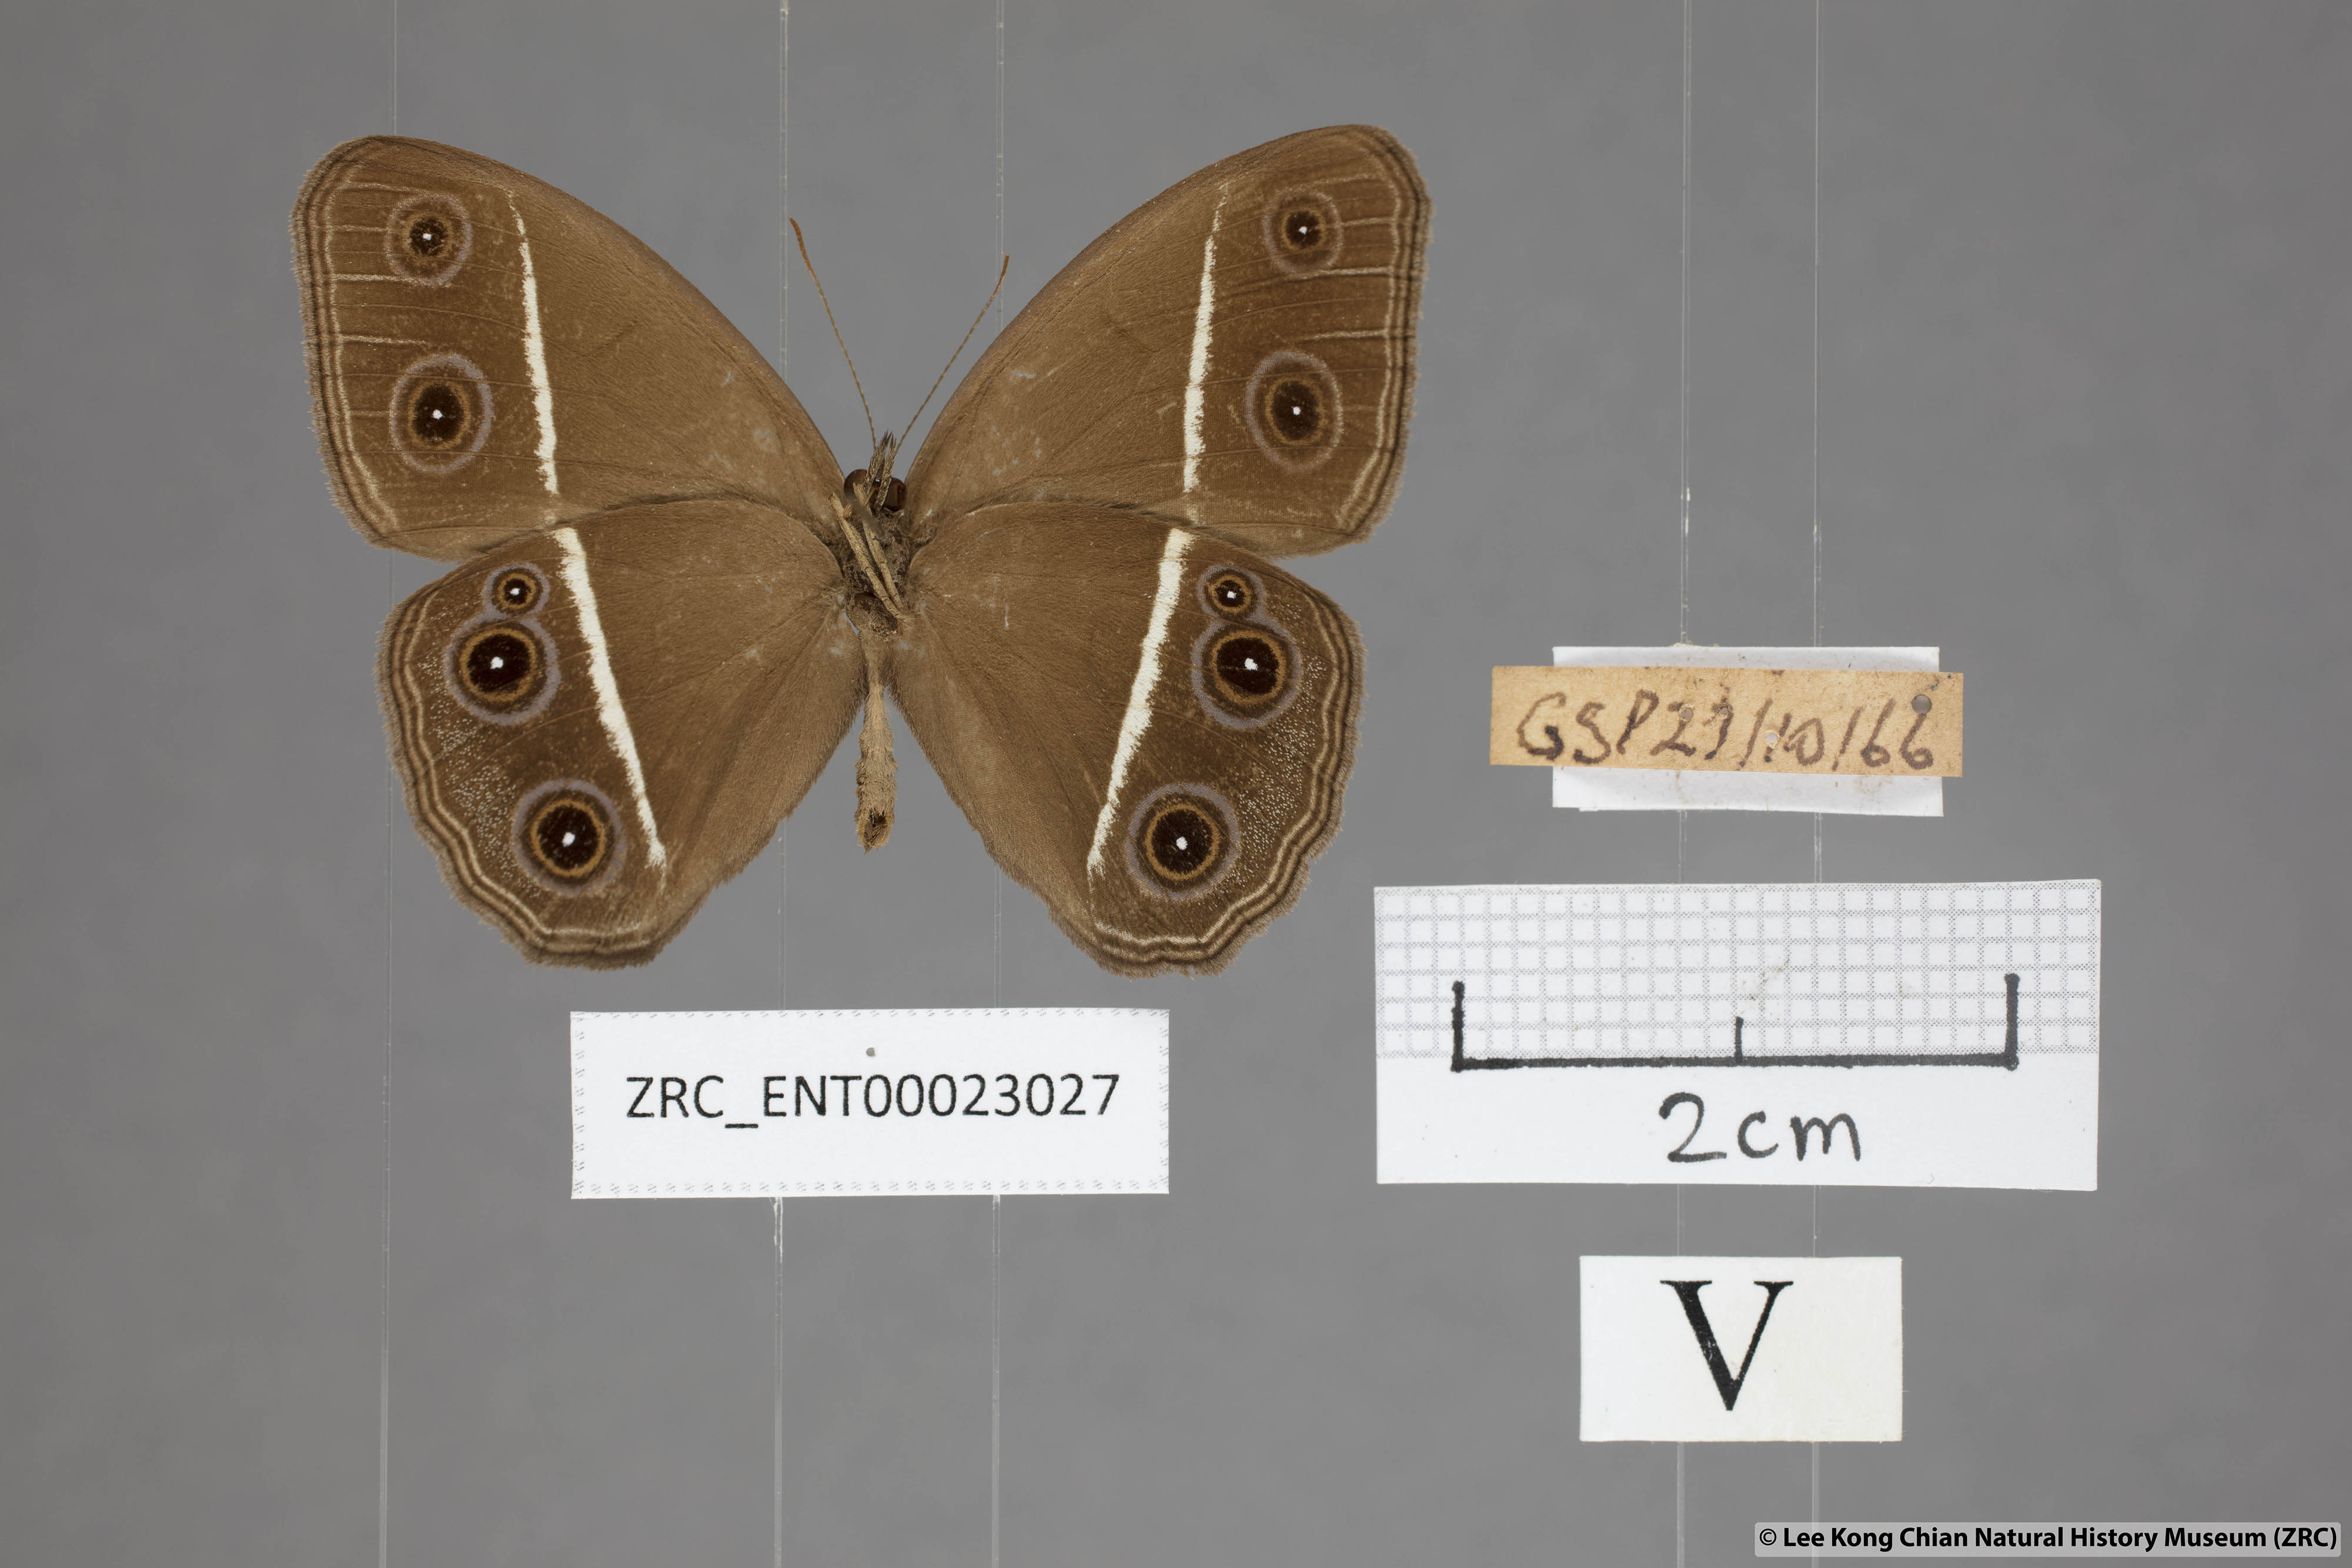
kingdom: Animalia
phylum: Arthropoda
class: Insecta
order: Lepidoptera
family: Nymphalidae
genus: Orsotriaena
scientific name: Orsotriaena medus
